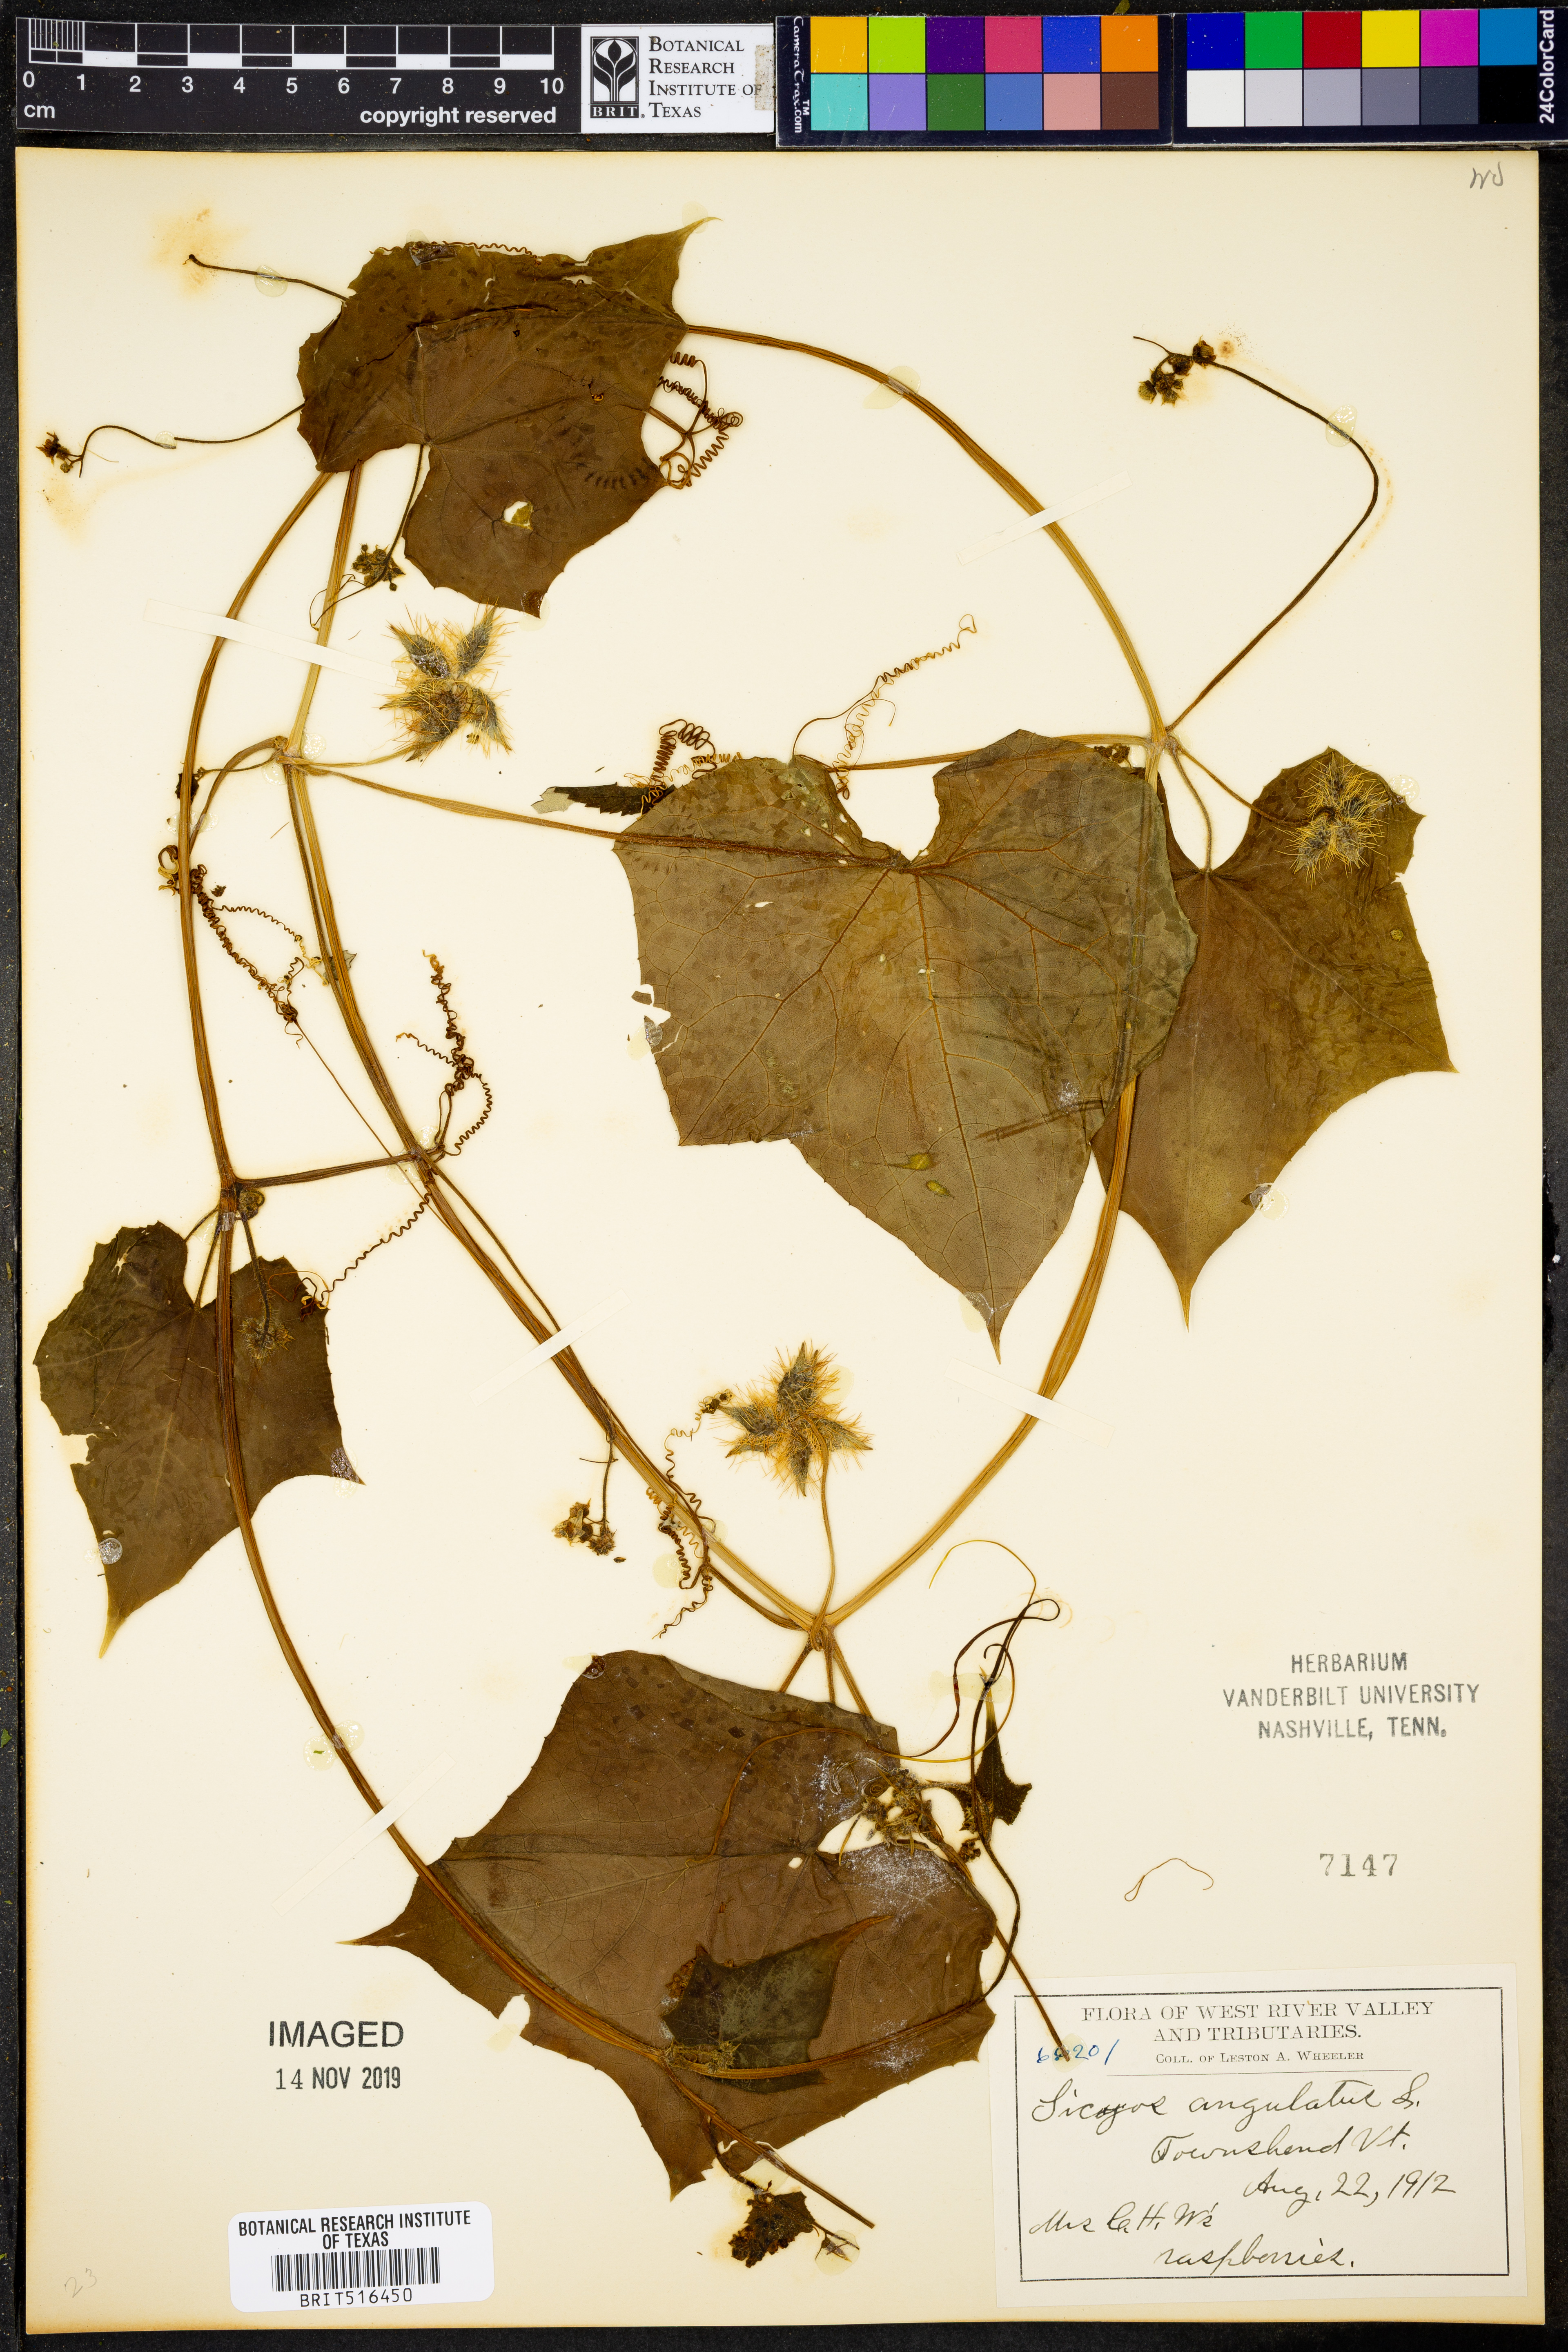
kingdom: Plantae
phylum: Tracheophyta
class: Magnoliopsida
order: Cucurbitales
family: Cucurbitaceae
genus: Sicyos
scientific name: Sicyos angulatus
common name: Angled burr cucumber
